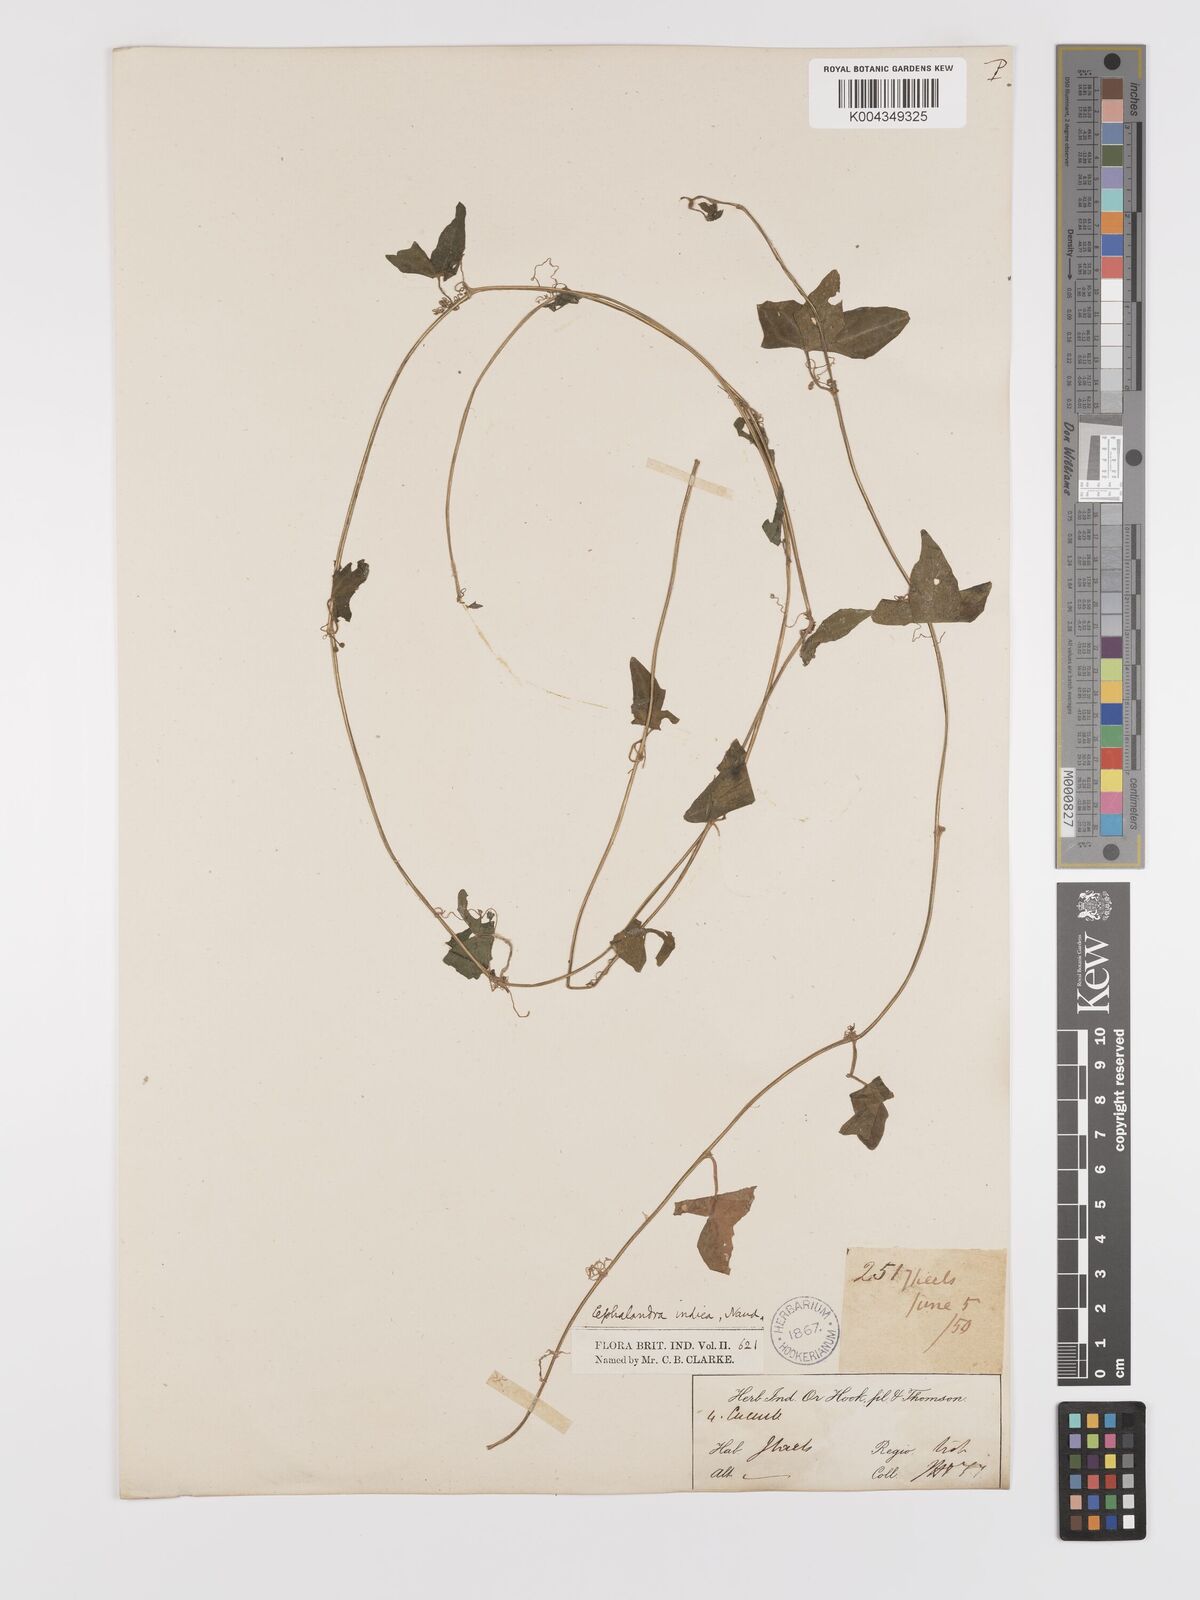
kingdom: Plantae
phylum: Tracheophyta
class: Magnoliopsida
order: Cucurbitales
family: Cucurbitaceae
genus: Zehneria
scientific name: Zehneria odorata
